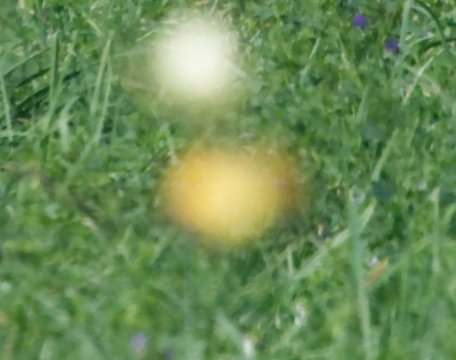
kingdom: Animalia
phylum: Arthropoda
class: Insecta
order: Lepidoptera
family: Pieridae
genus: Colias
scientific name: Colias eurytheme
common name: Orange Sulphur
